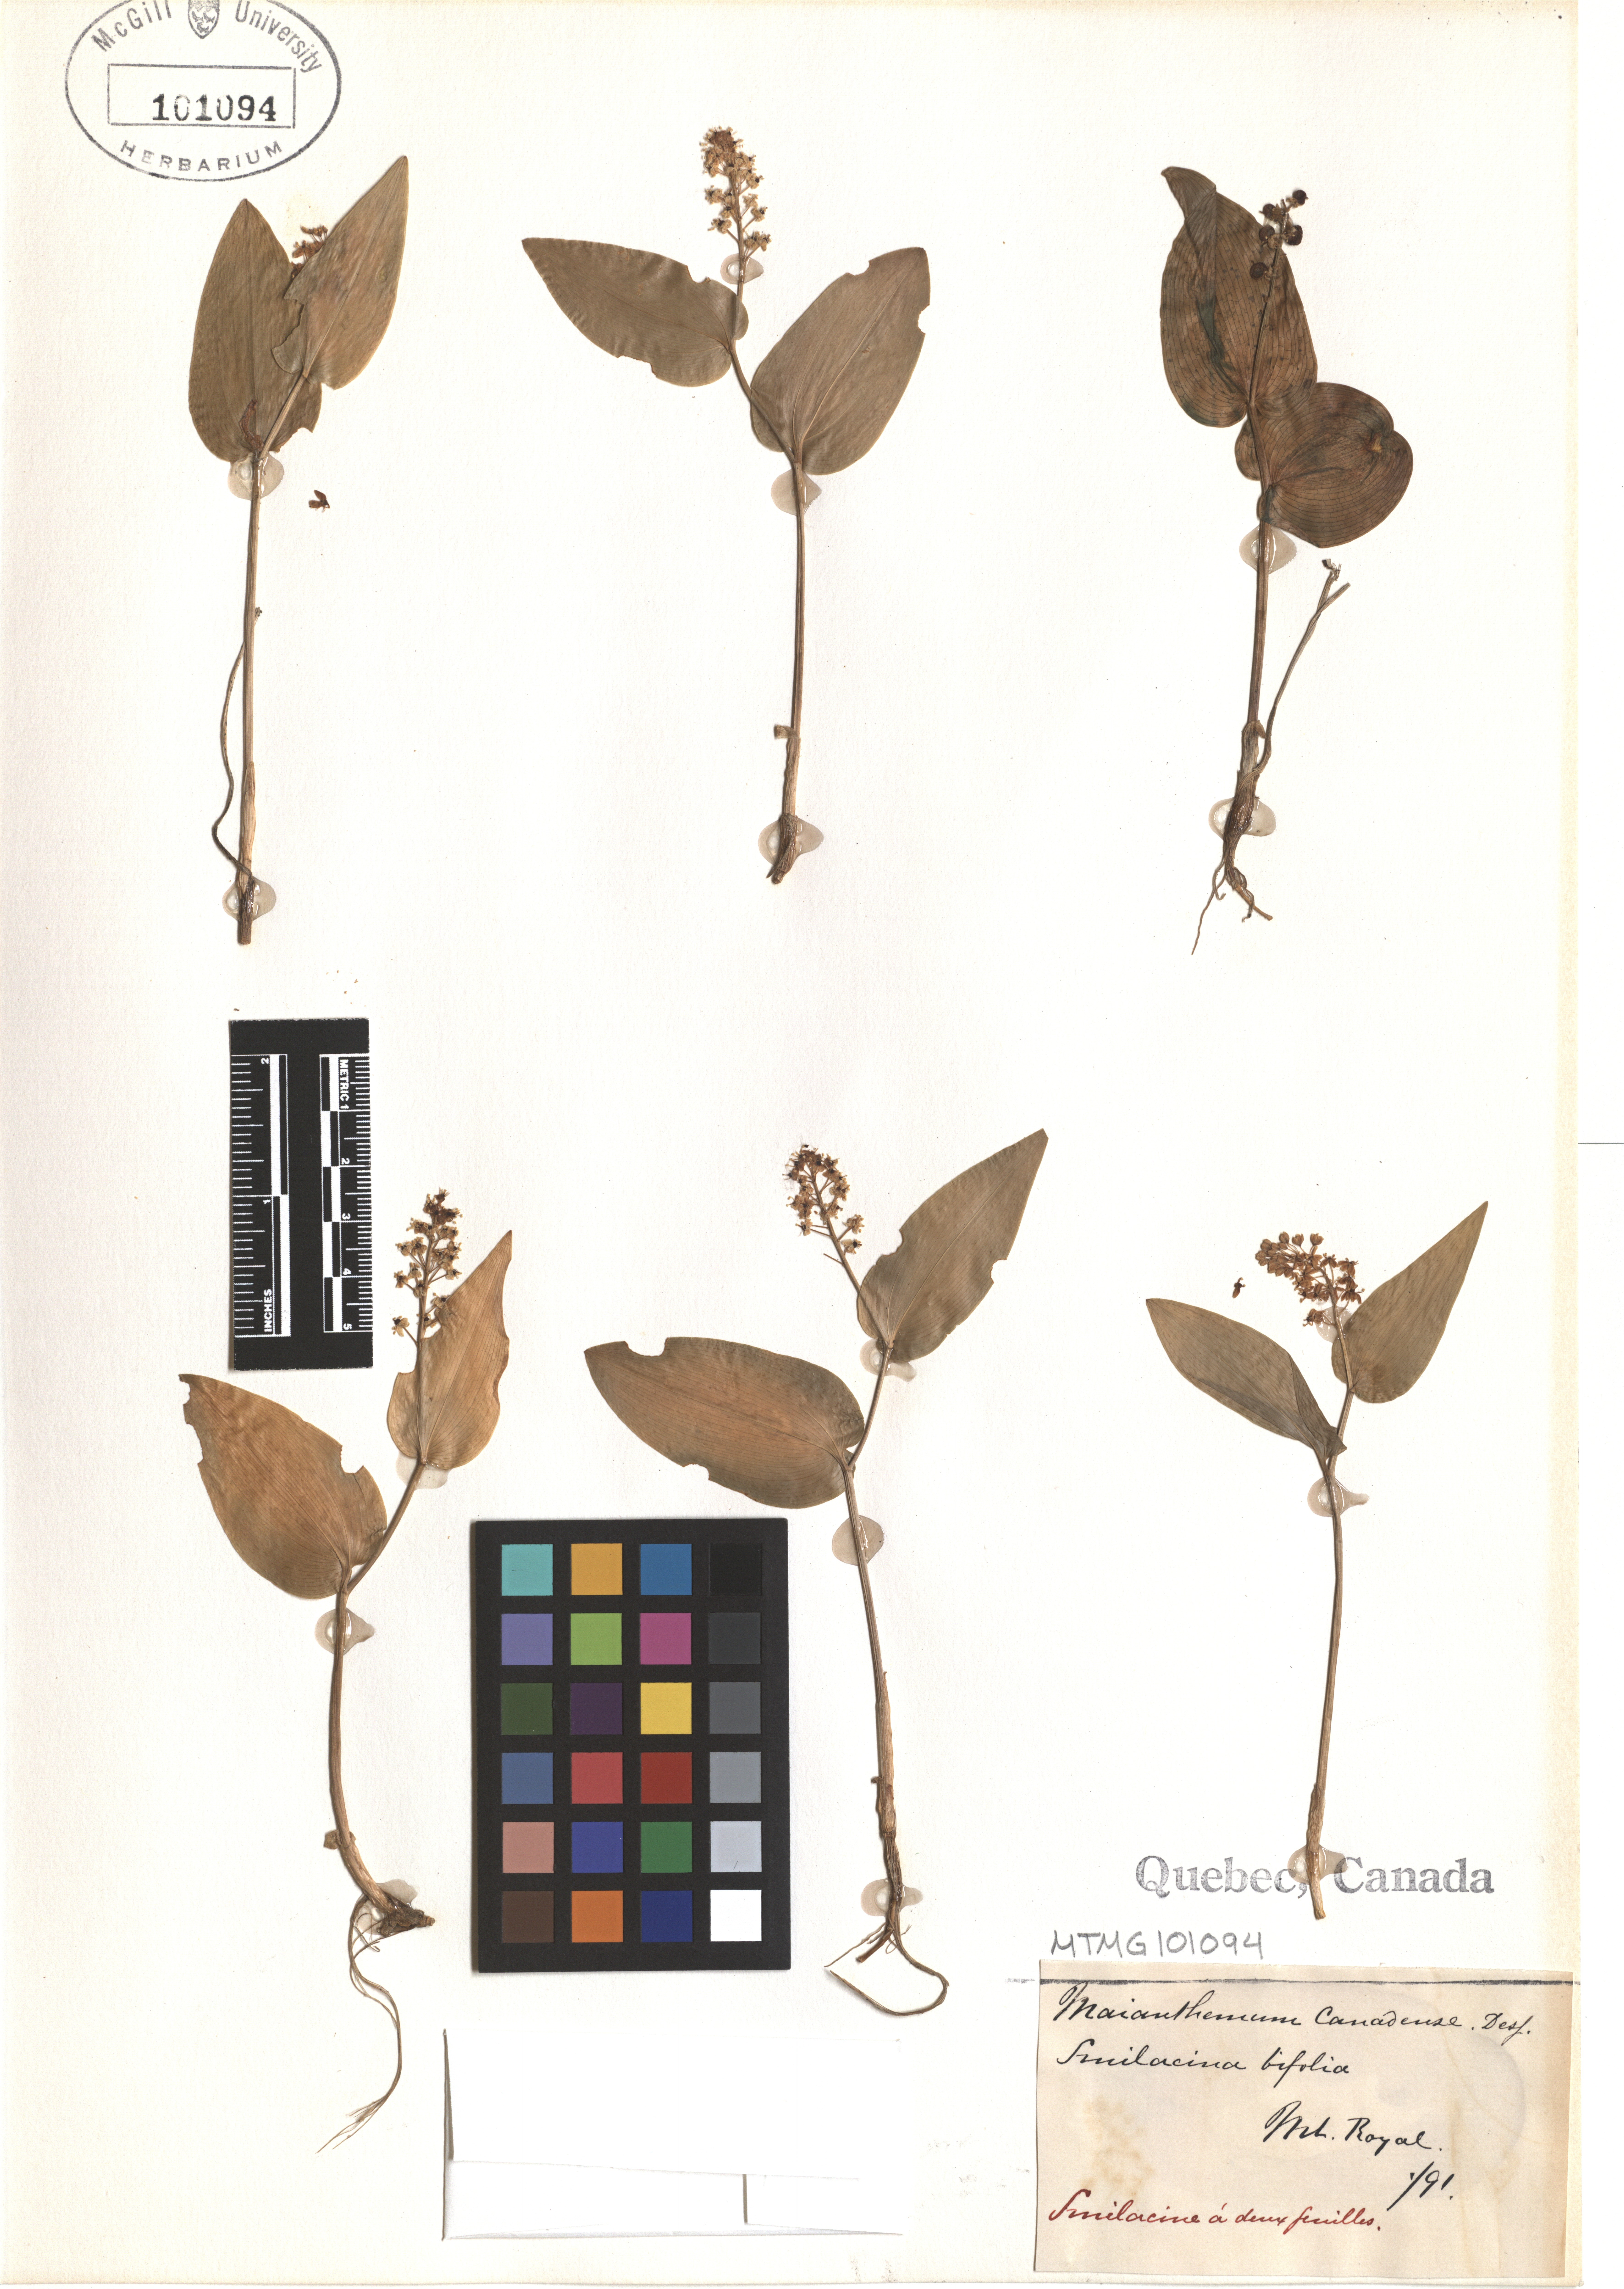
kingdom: Plantae
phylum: Tracheophyta
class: Liliopsida
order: Asparagales
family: Asparagaceae
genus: Maianthemum
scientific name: Maianthemum canadense
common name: False lily-of-the-valley
